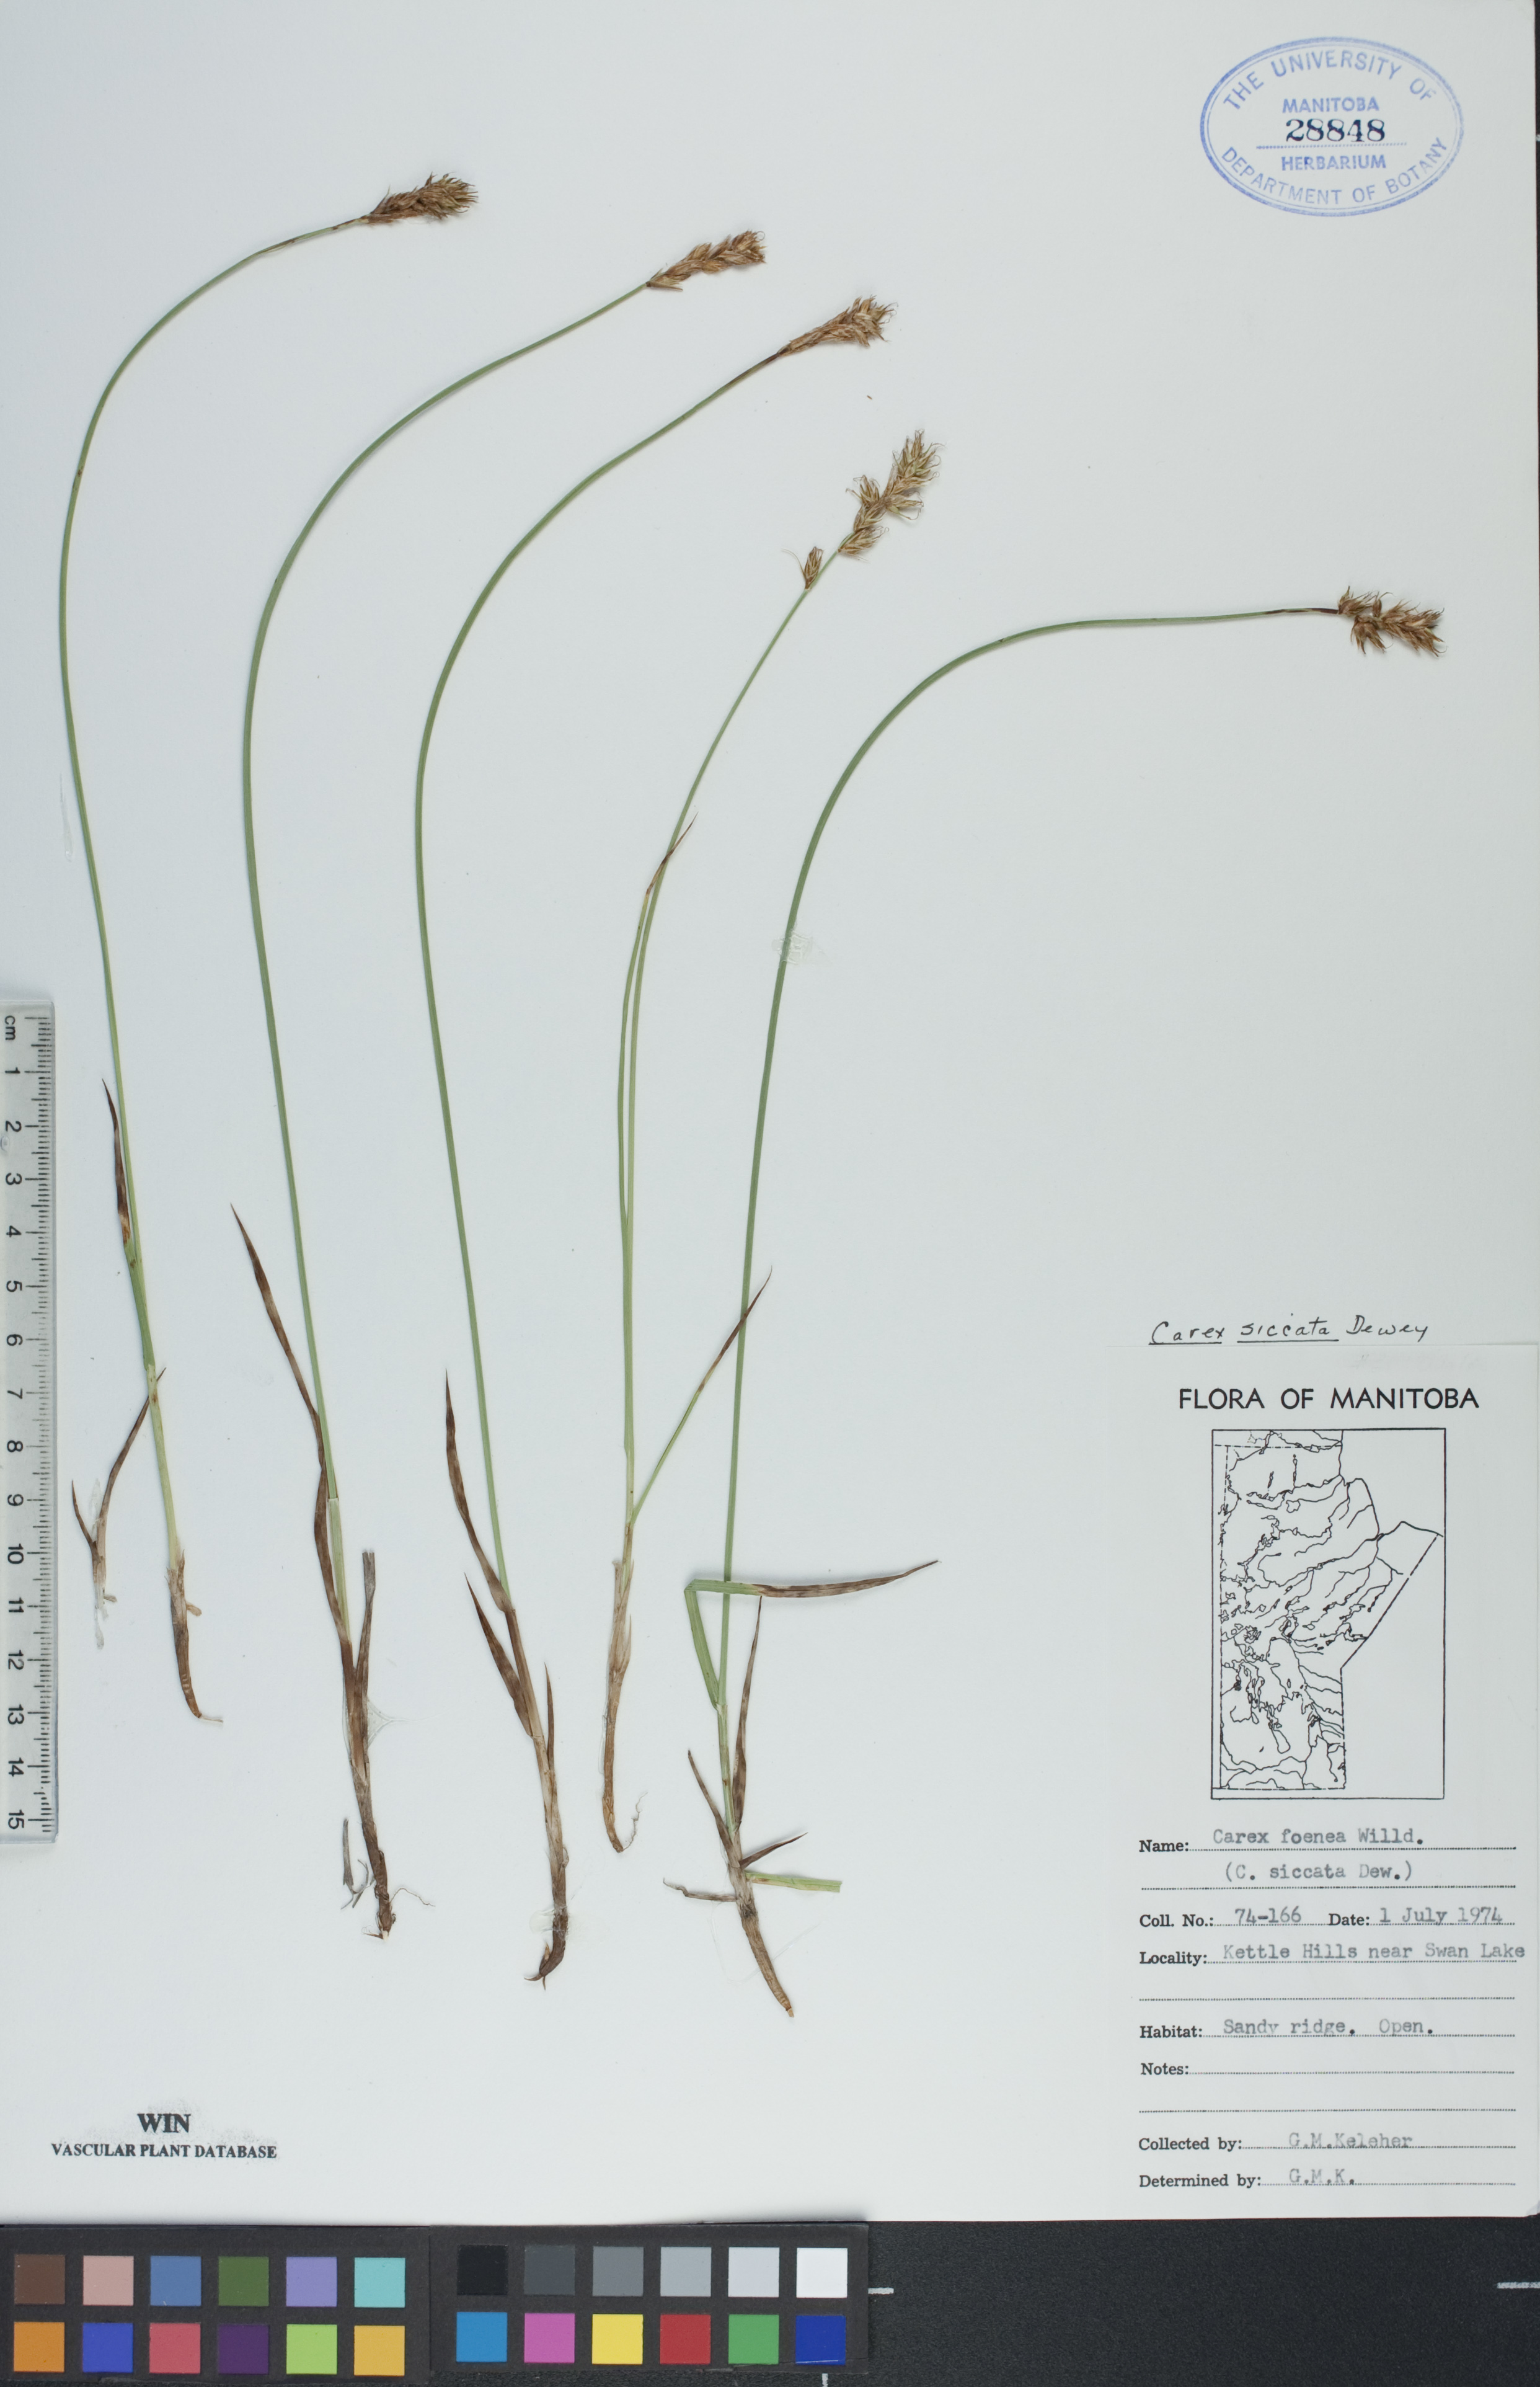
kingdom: Plantae
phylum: Tracheophyta
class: Liliopsida
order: Poales
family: Cyperaceae
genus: Carex
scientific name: Carex siccata
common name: Dry sedge
